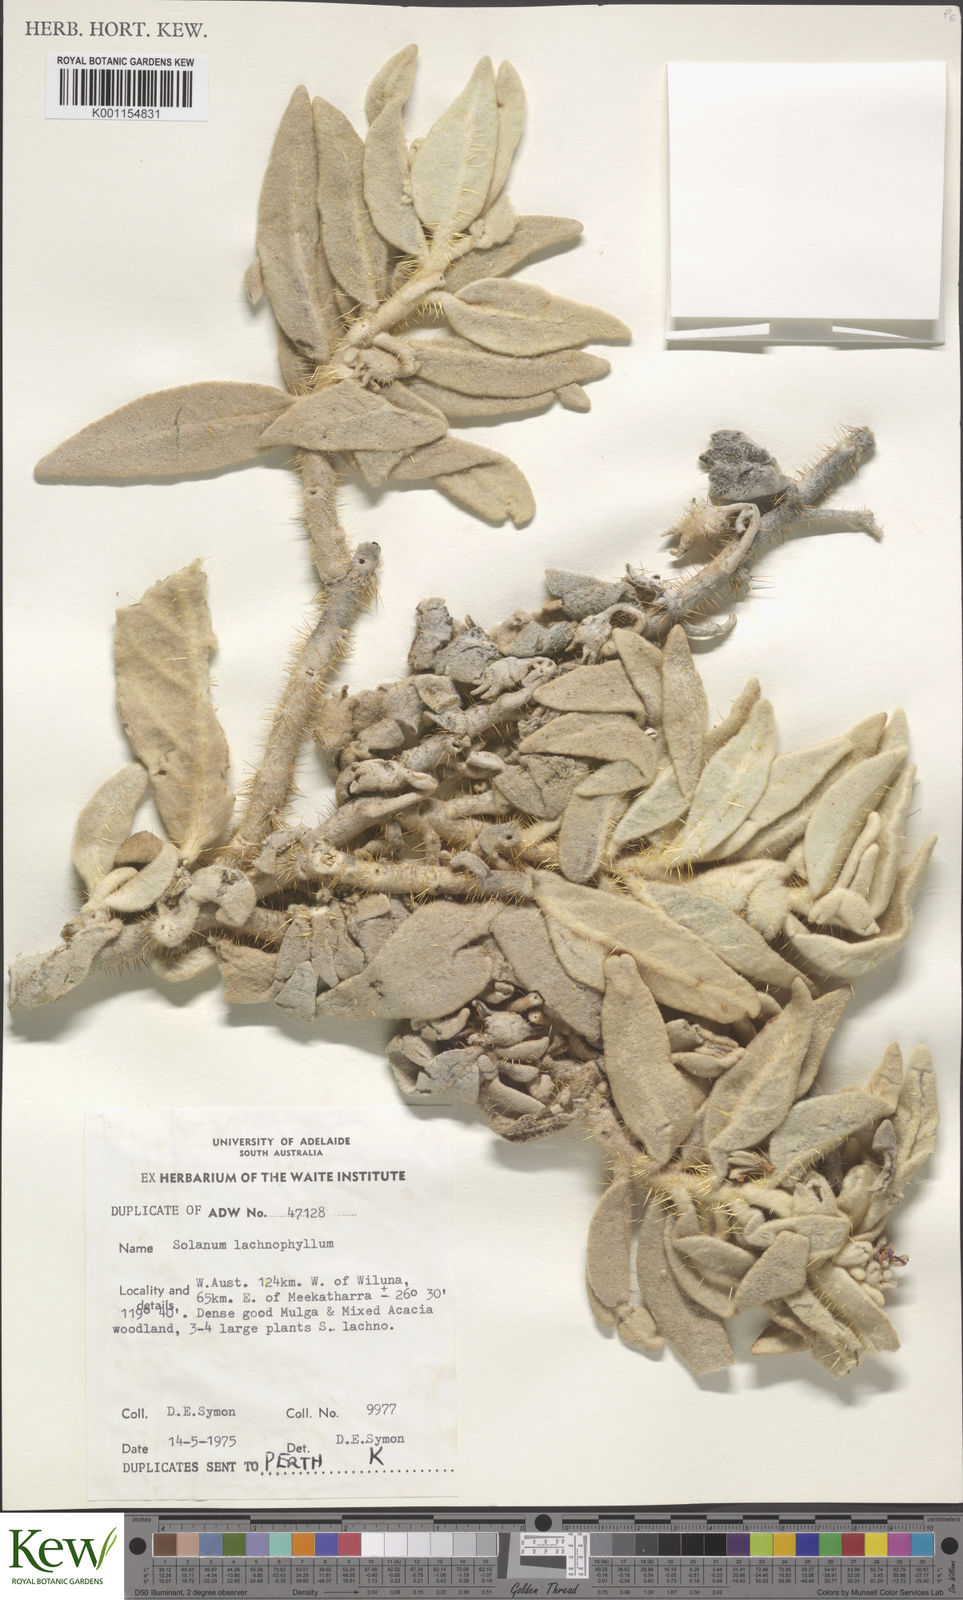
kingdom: Plantae
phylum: Tracheophyta
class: Magnoliopsida
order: Solanales
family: Solanaceae
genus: Solanum
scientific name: Solanum lachnophyllum
